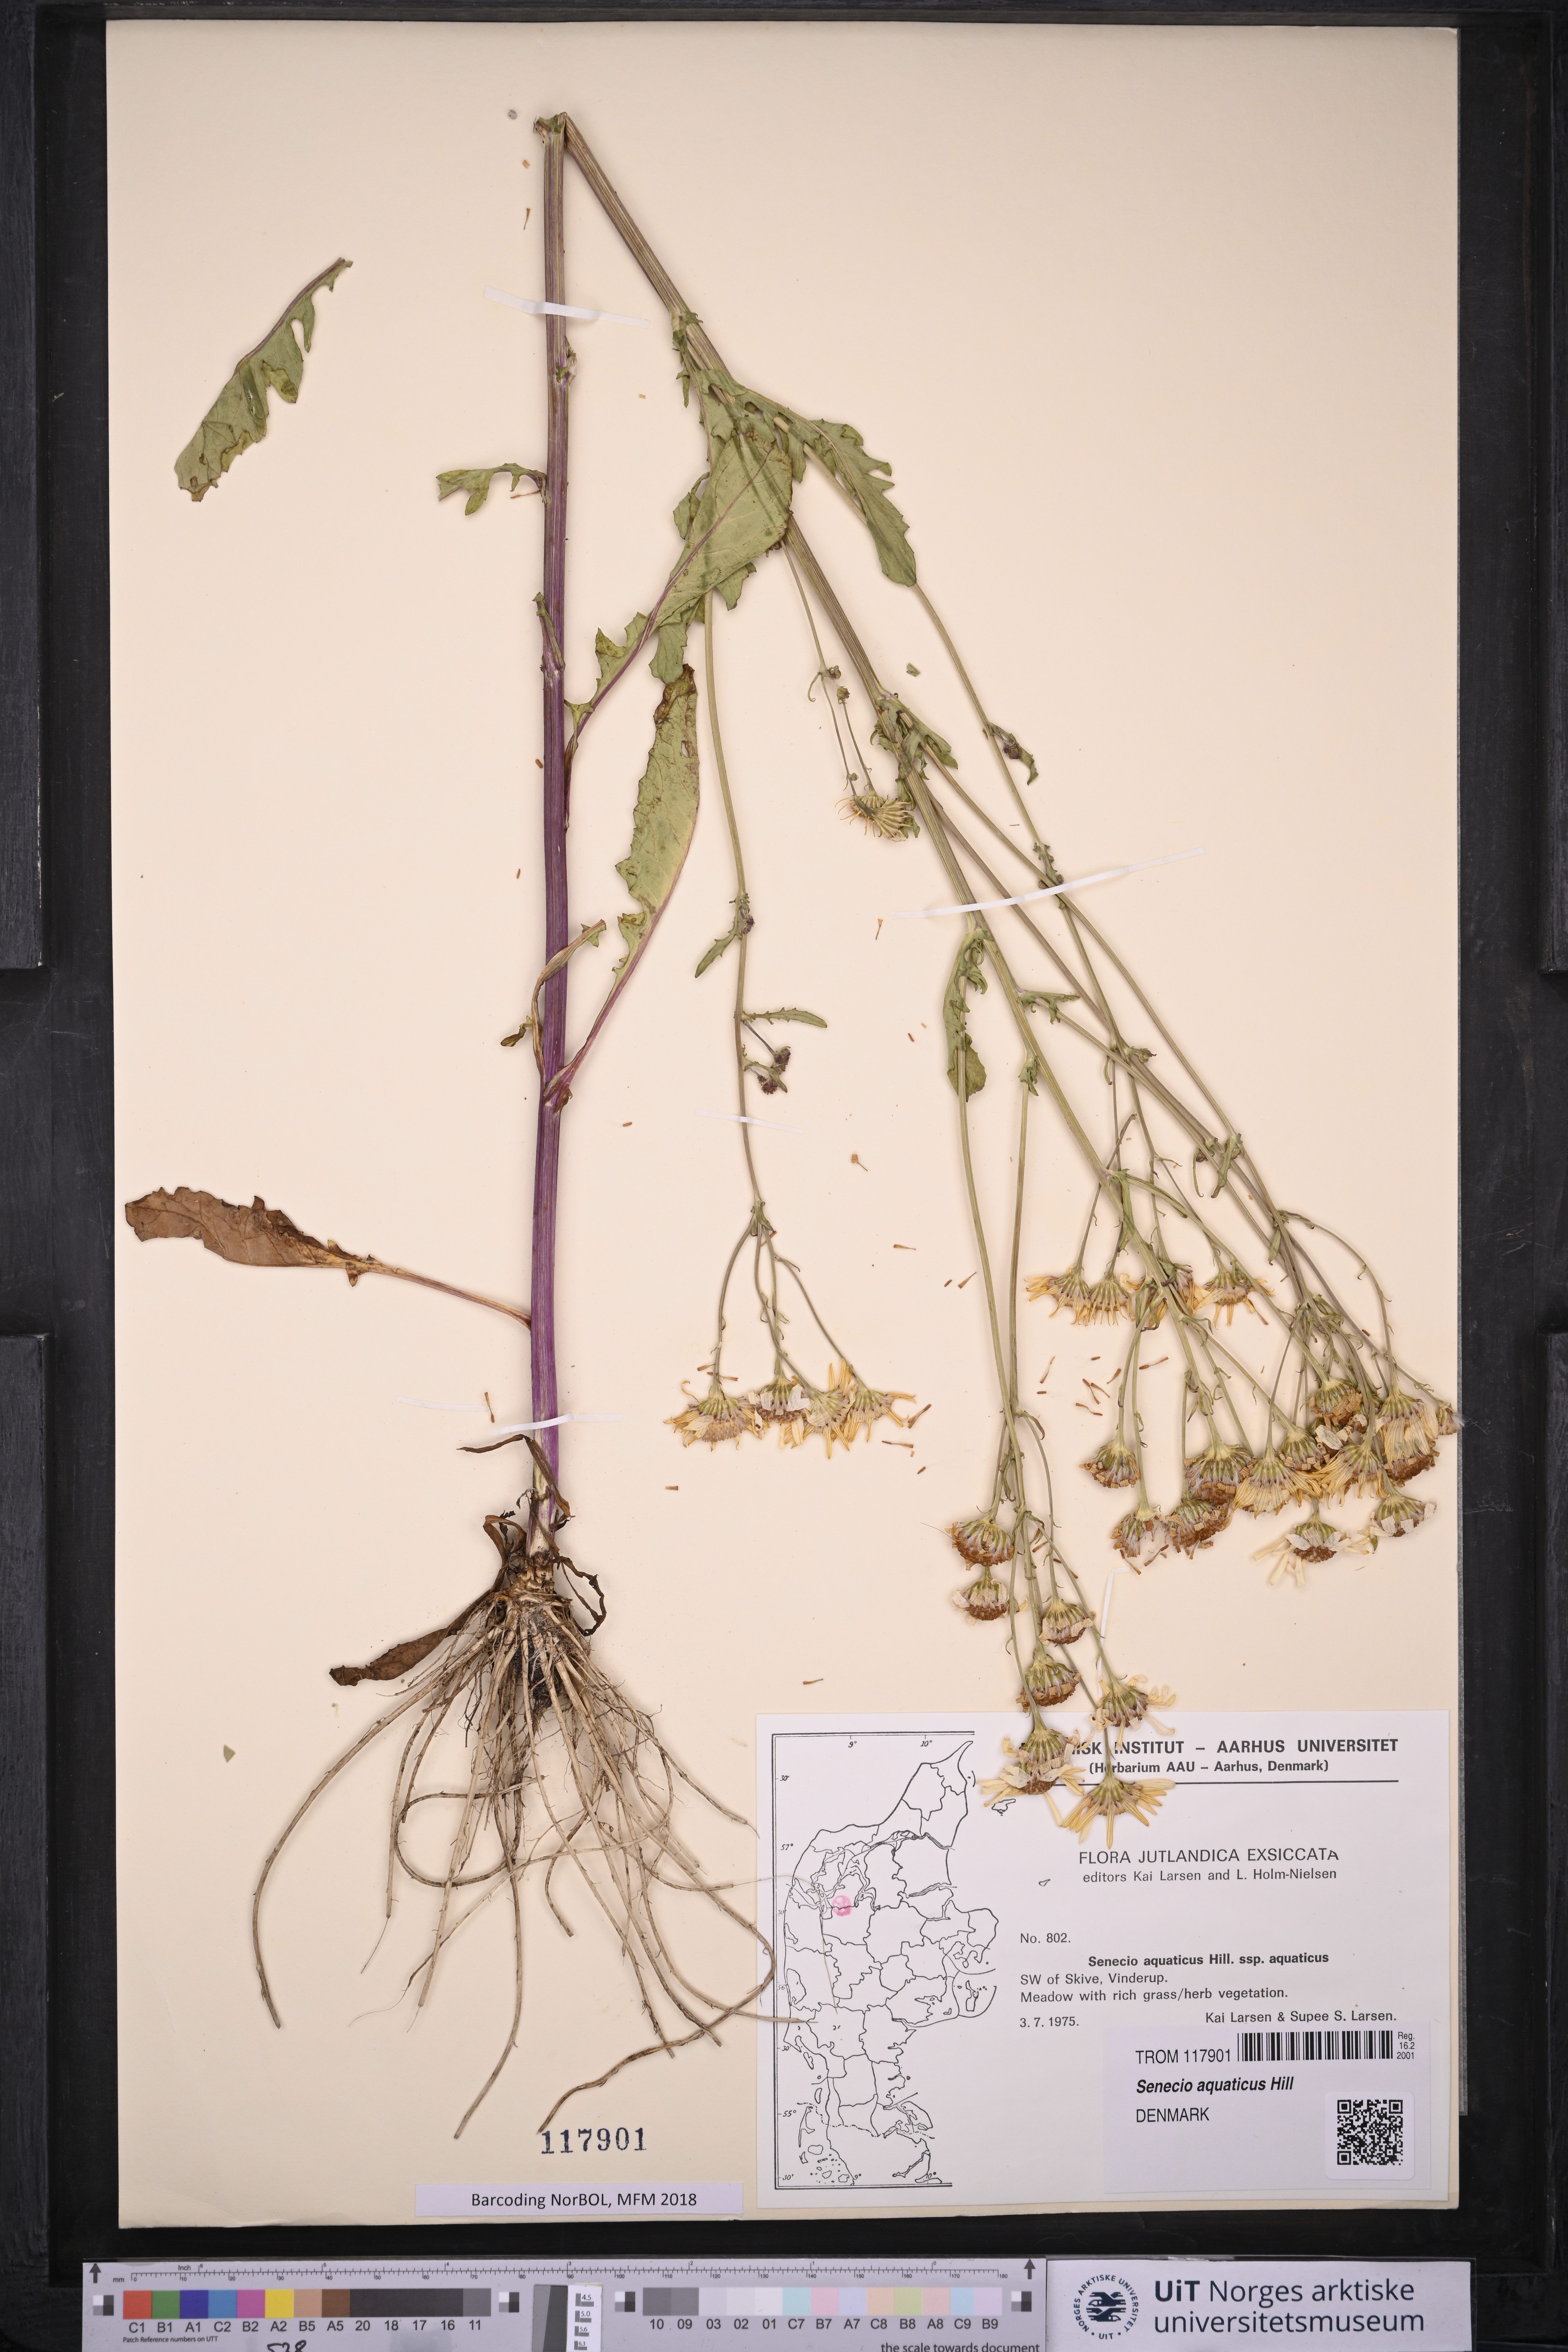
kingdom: Plantae
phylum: Tracheophyta
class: Magnoliopsida
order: Asterales
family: Asteraceae
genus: Jacobaea
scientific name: Jacobaea aquatica
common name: Water ragwort
